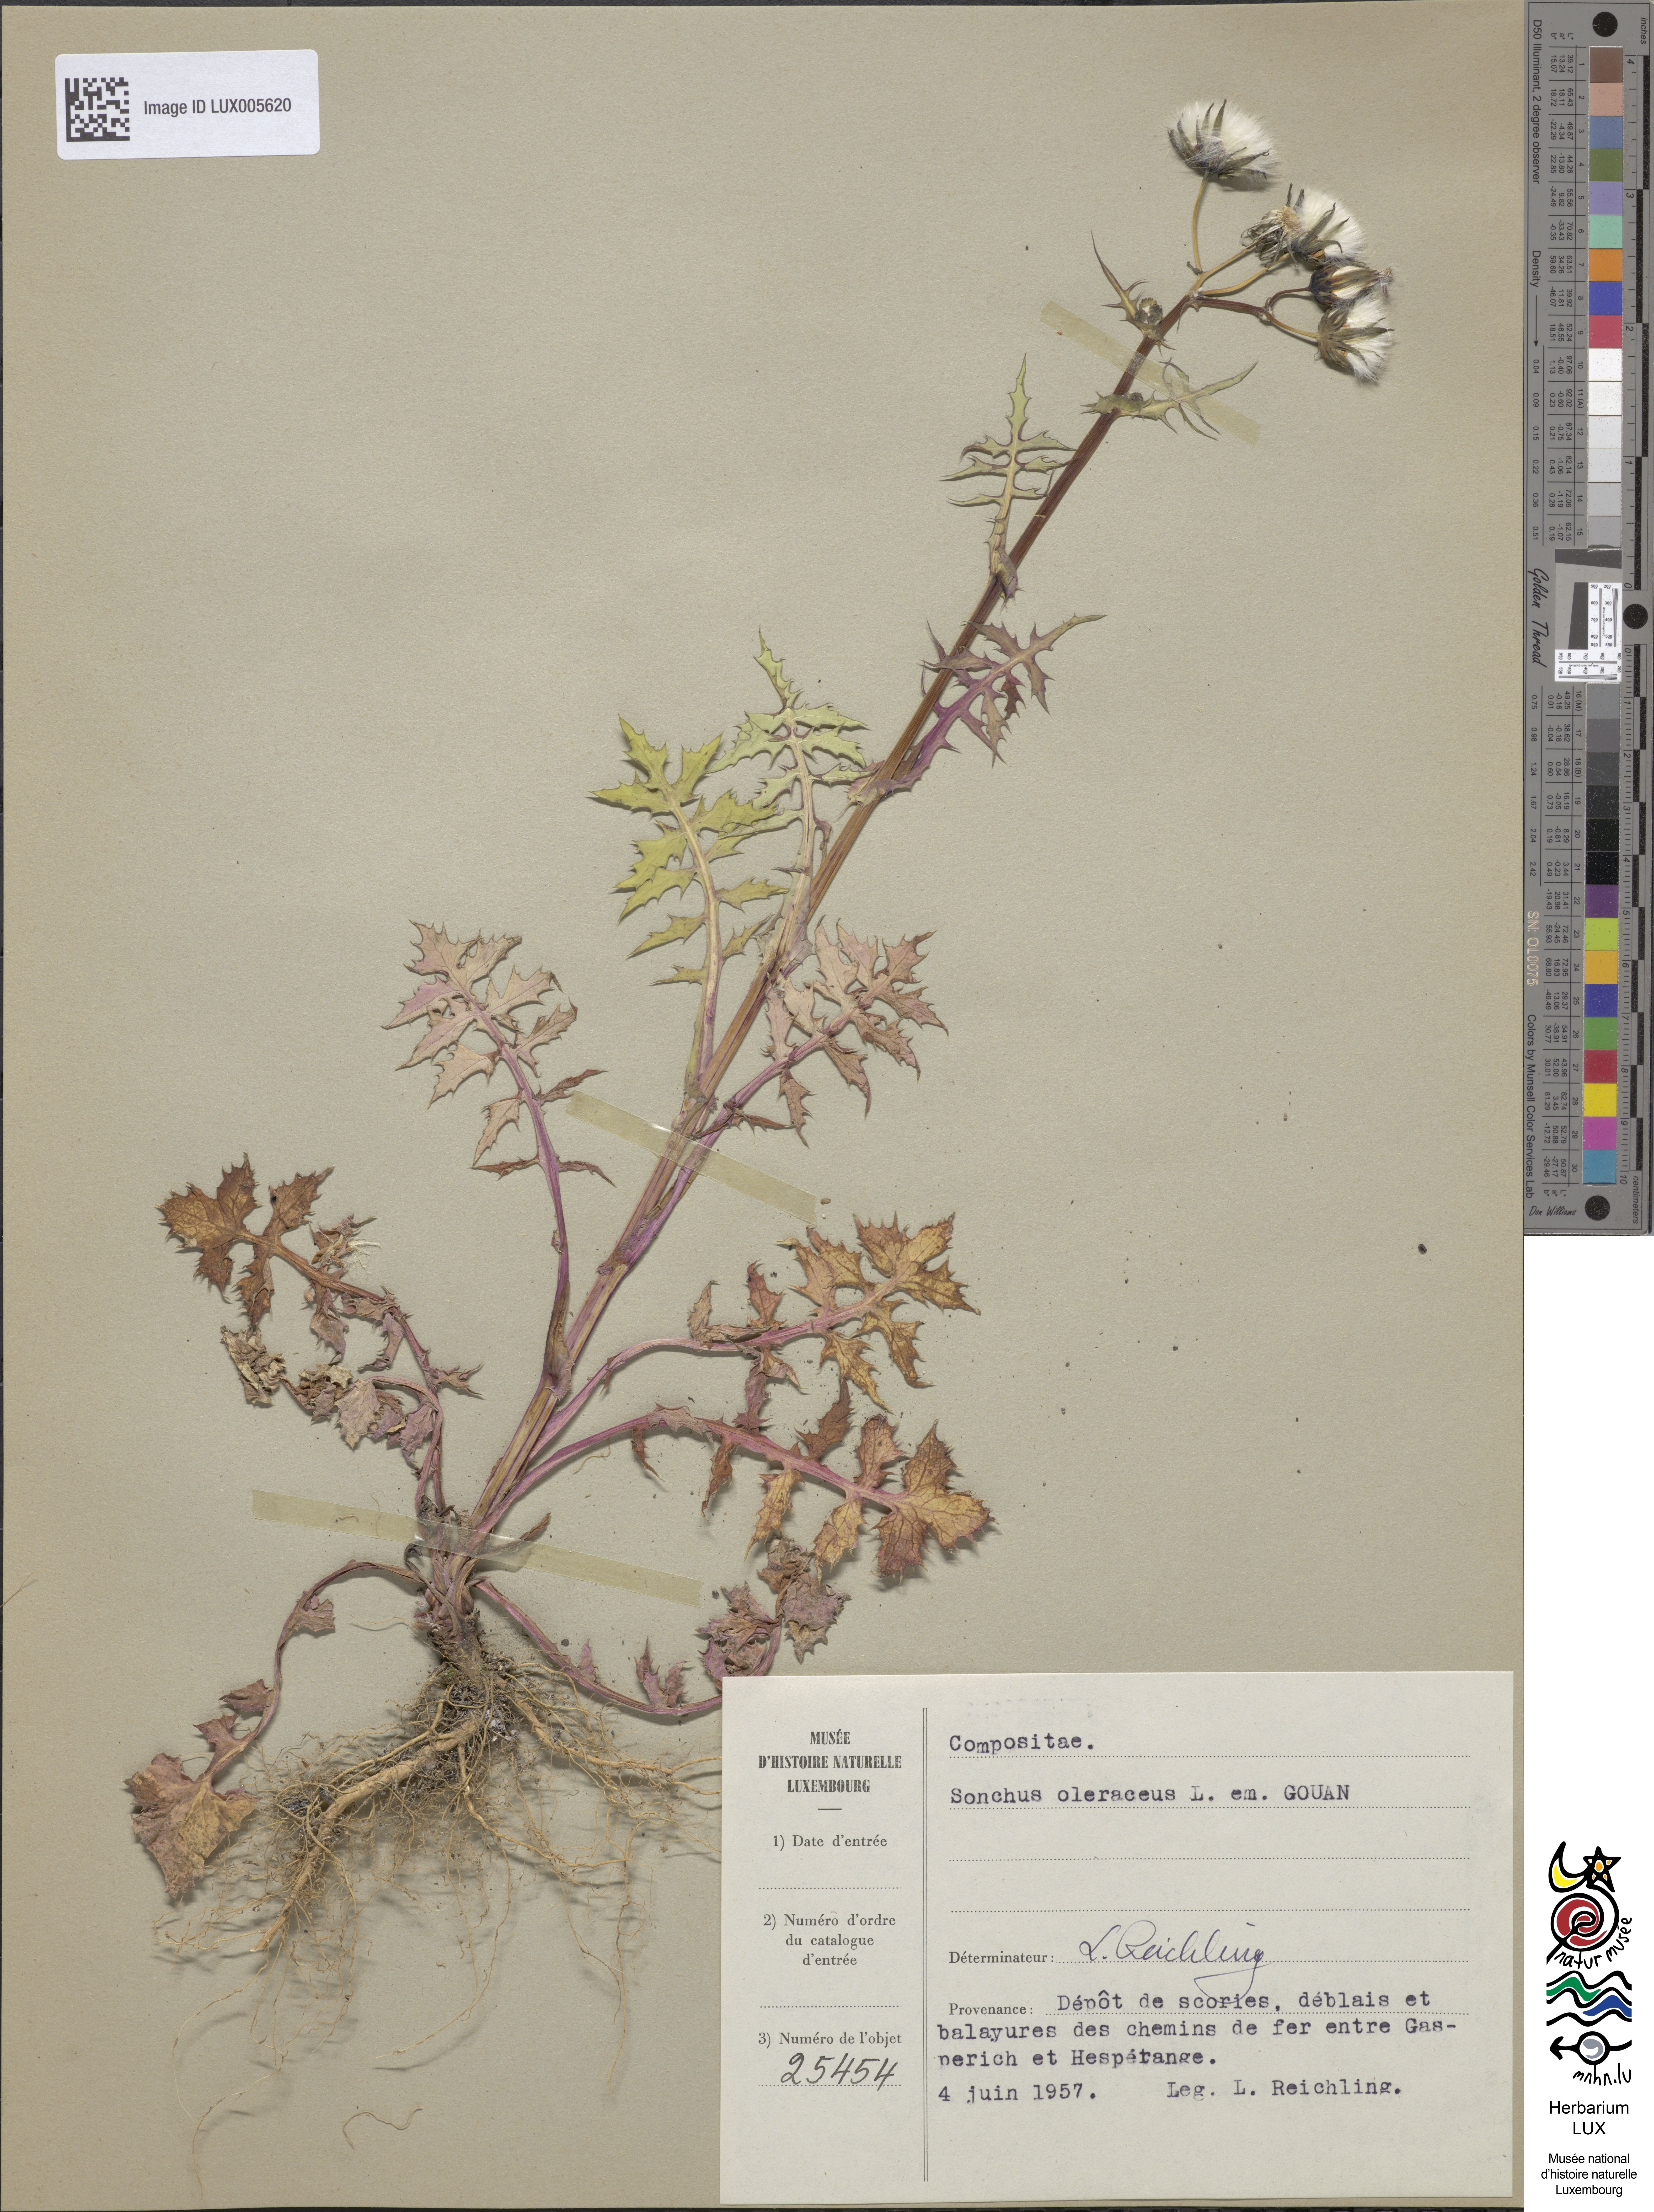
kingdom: Plantae
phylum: Tracheophyta
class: Magnoliopsida
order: Asterales
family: Asteraceae
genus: Sonchus
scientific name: Sonchus oleraceus
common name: Common sowthistle
